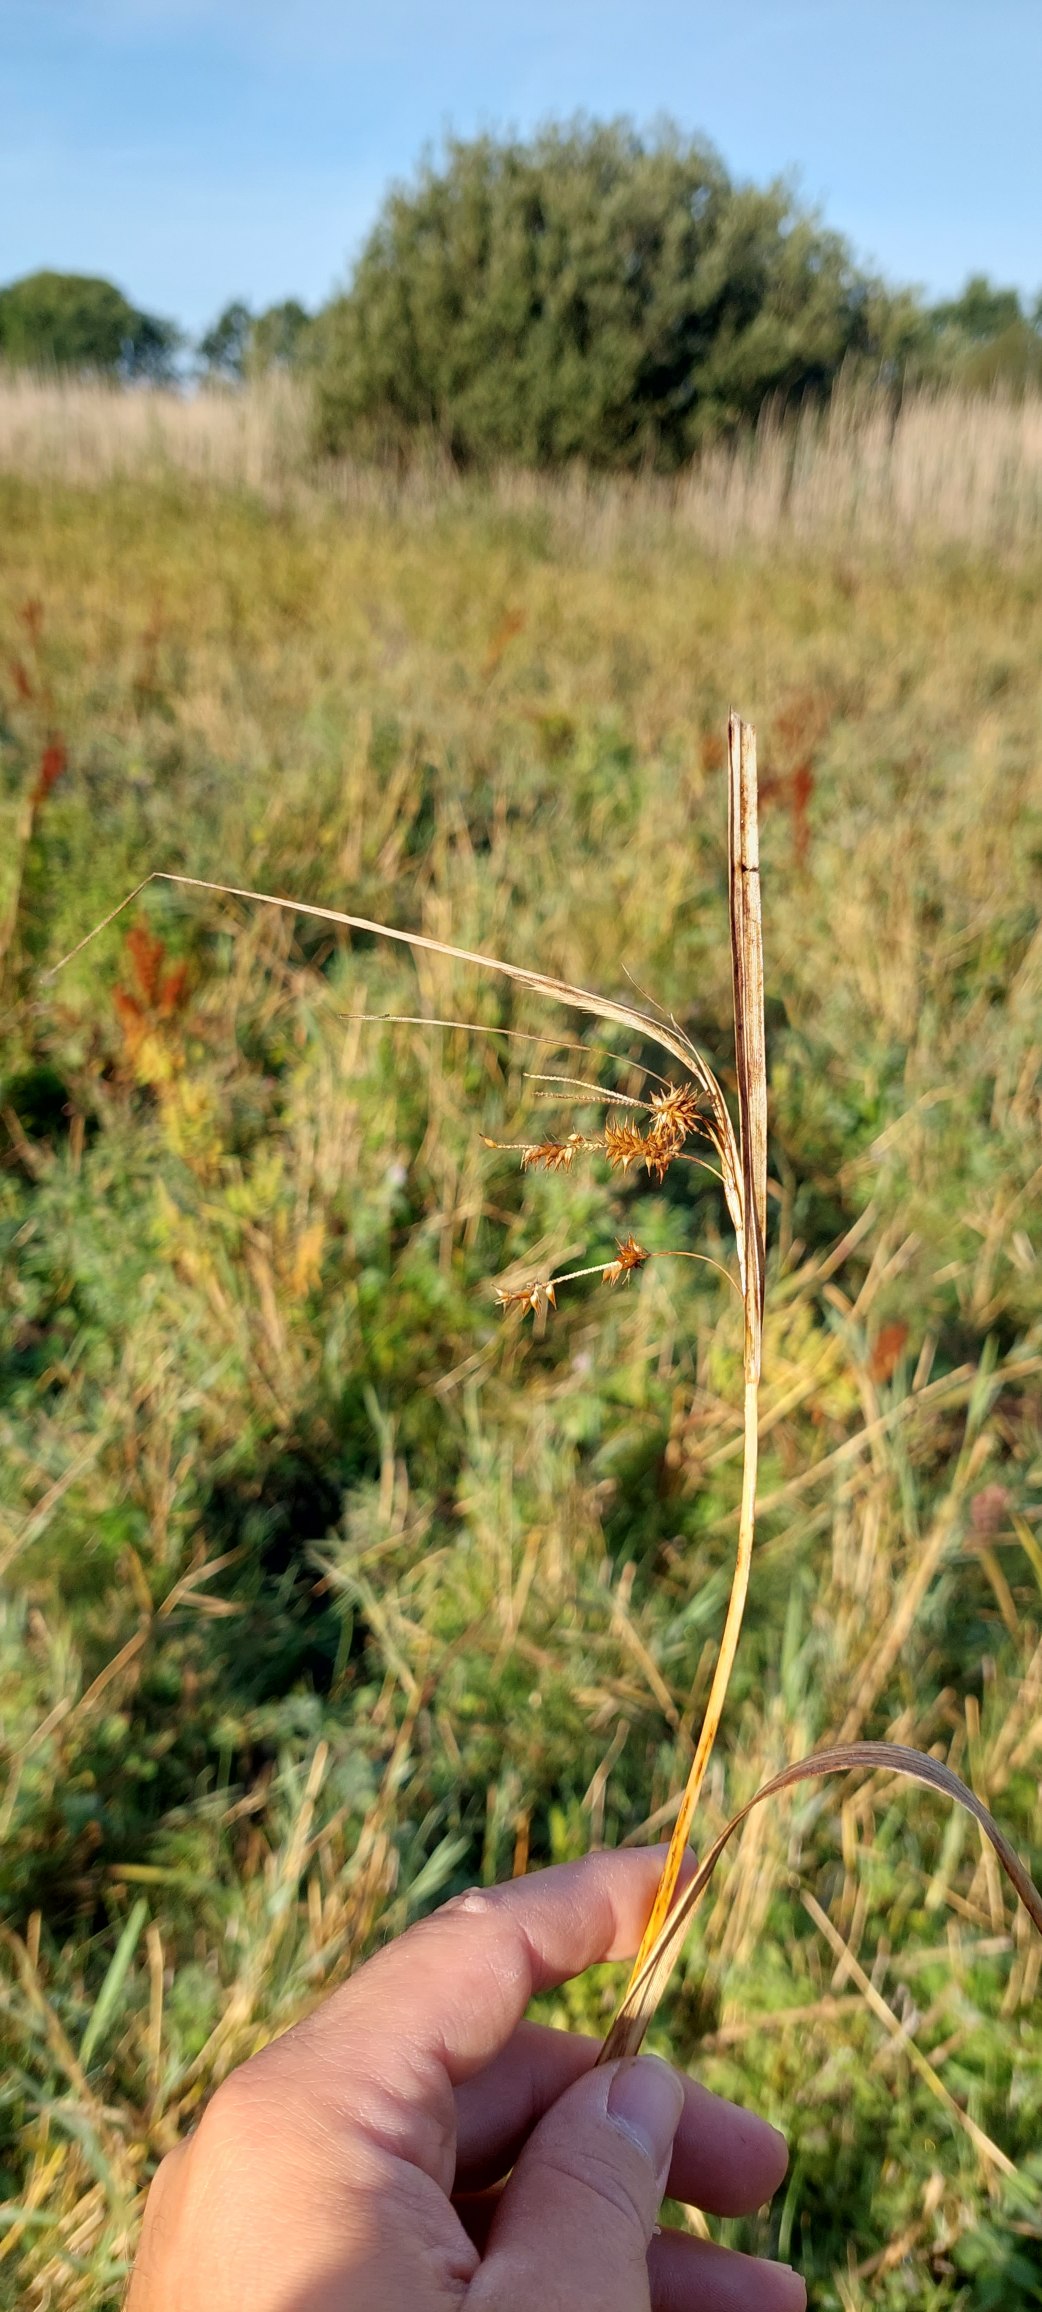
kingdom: Plantae
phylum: Tracheophyta
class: Liliopsida
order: Poales
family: Cyperaceae
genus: Carex
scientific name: Carex pseudocyperus
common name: Knippe-star
